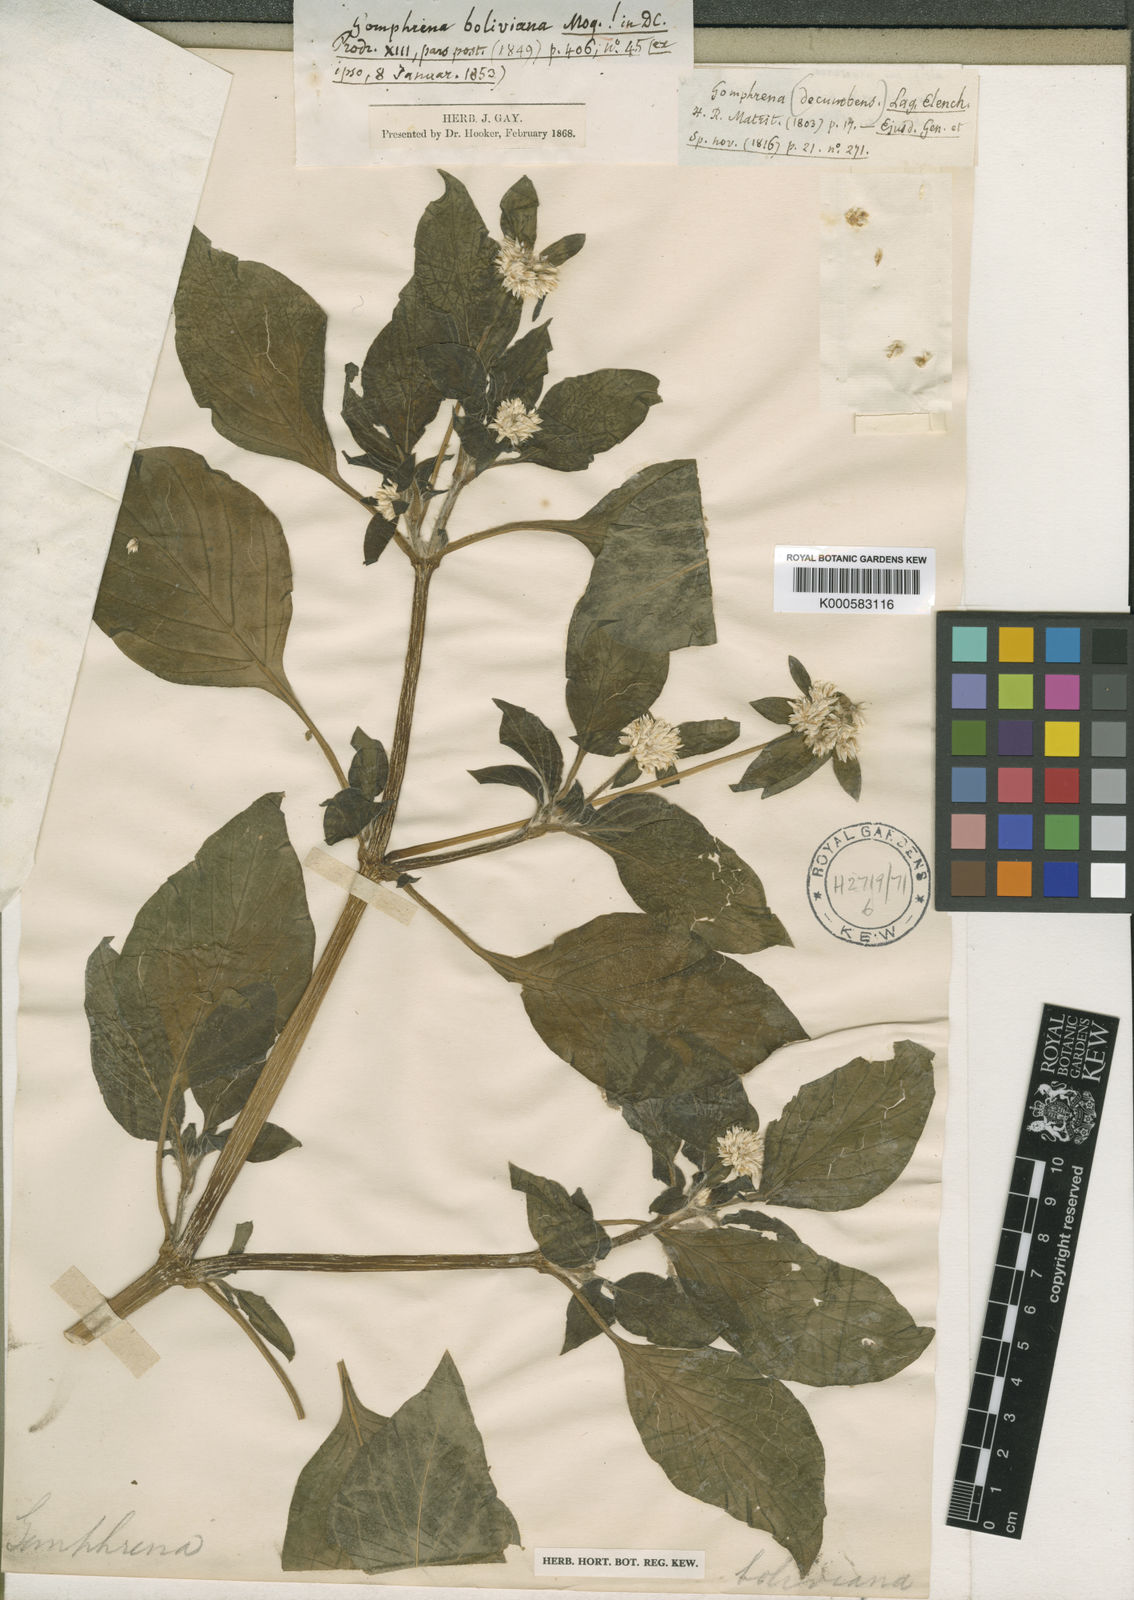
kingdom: Plantae
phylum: Tracheophyta
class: Magnoliopsida
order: Caryophyllales
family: Amaranthaceae
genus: Gomphrena
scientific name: Gomphrena martiana
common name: Globe amaranth
